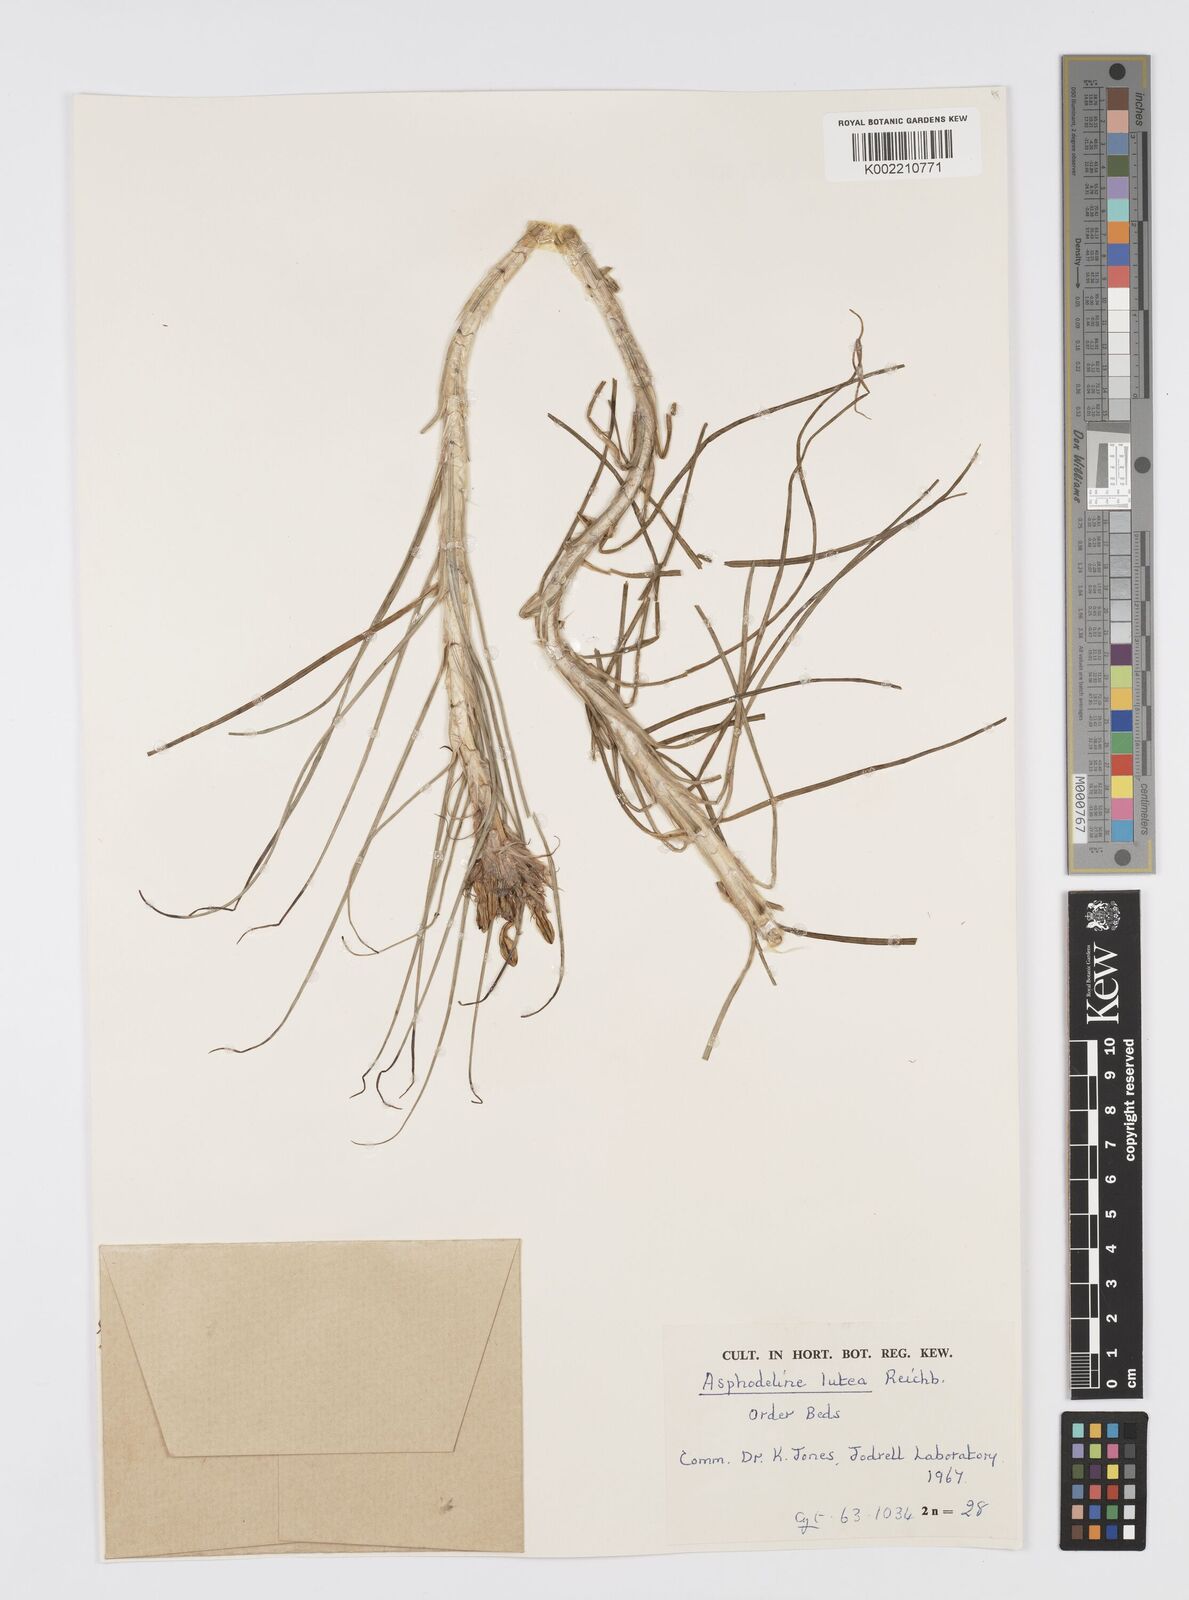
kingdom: Plantae
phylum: Tracheophyta
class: Liliopsida
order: Asparagales
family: Asphodelaceae
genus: Asphodeline
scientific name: Asphodeline lutea
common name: Yellow asphodel
